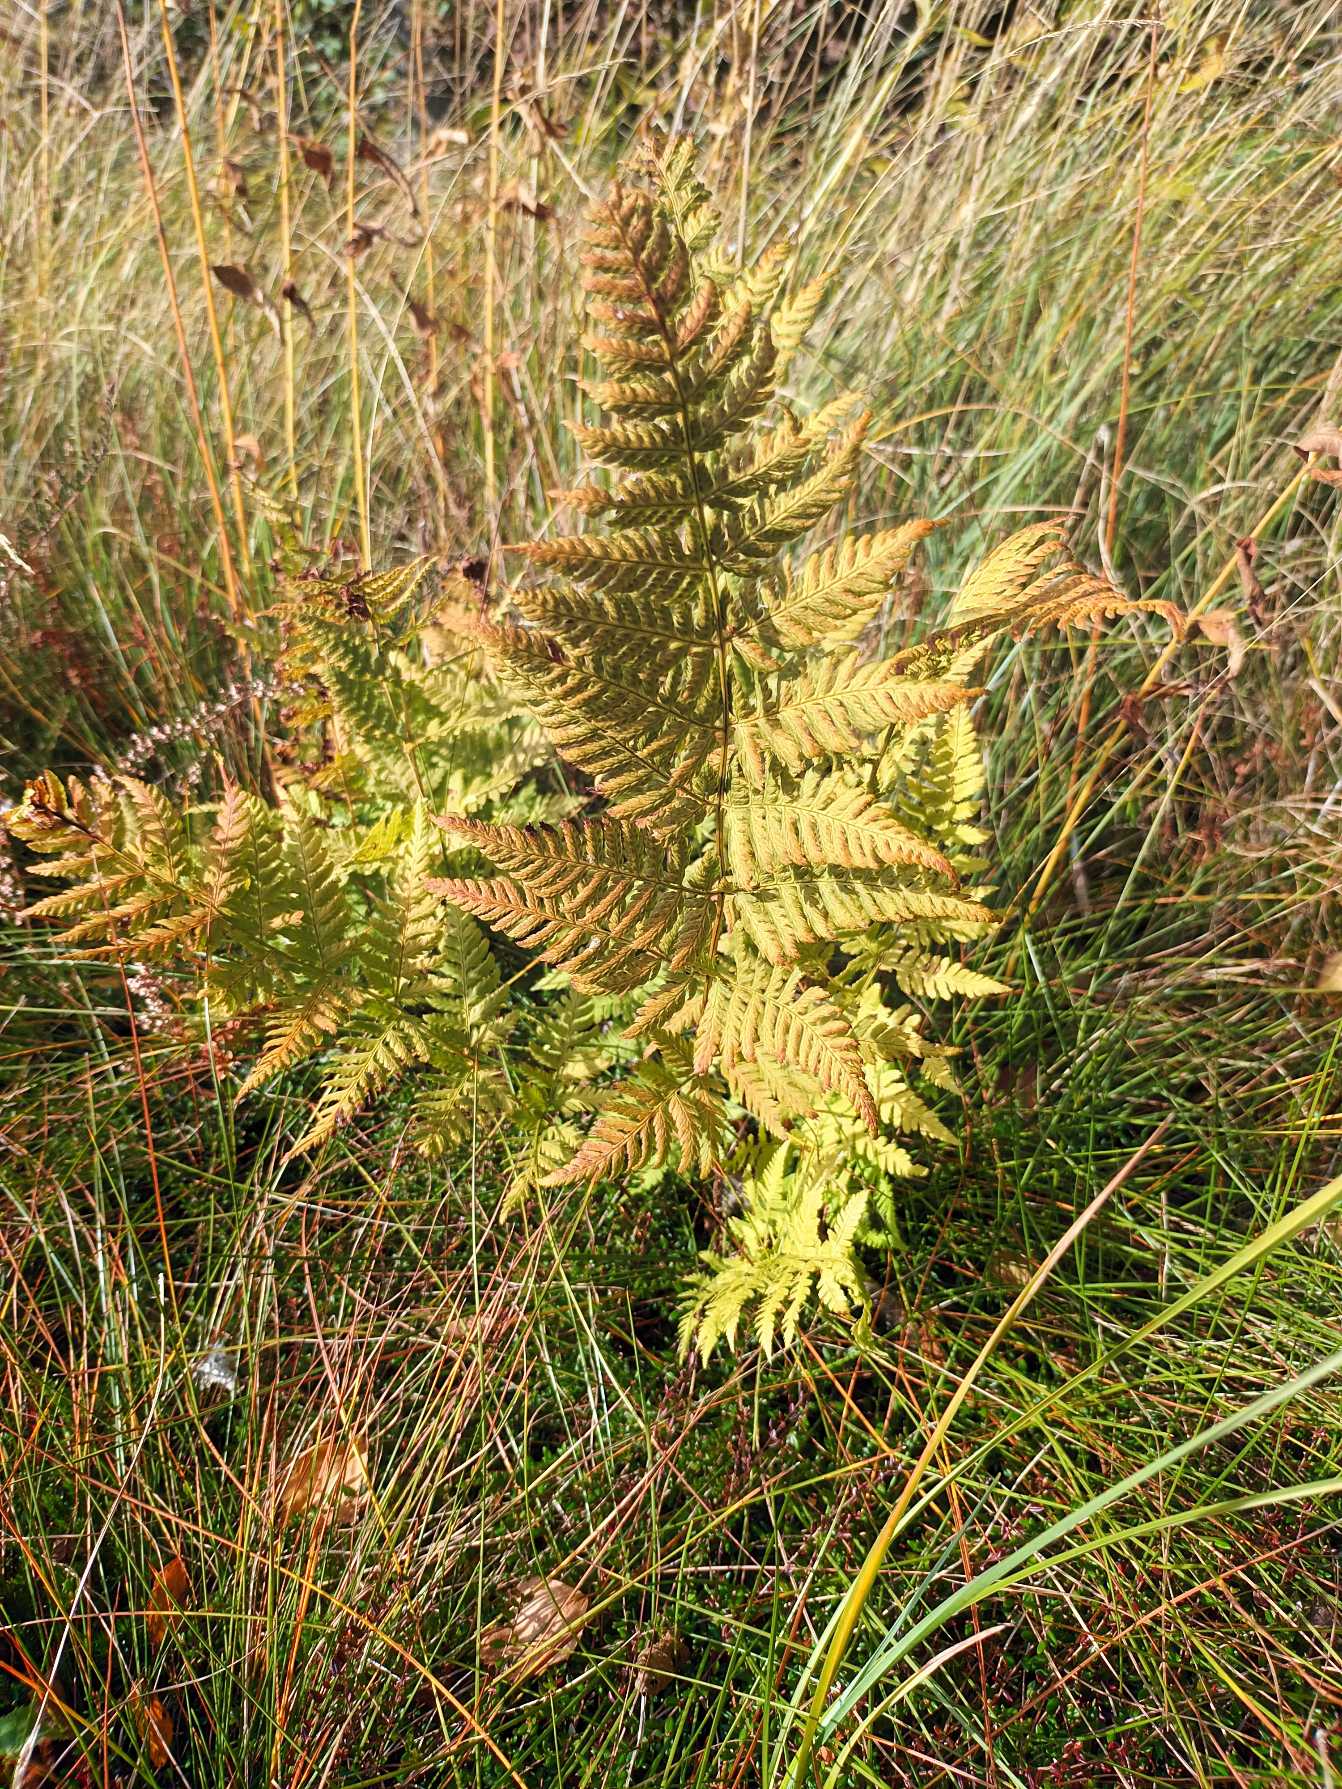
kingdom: Plantae
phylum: Tracheophyta
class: Polypodiopsida
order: Polypodiales
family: Dryopteridaceae
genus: Dryopteris
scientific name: Dryopteris carthusiana
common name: Smalbladet mangeløv
